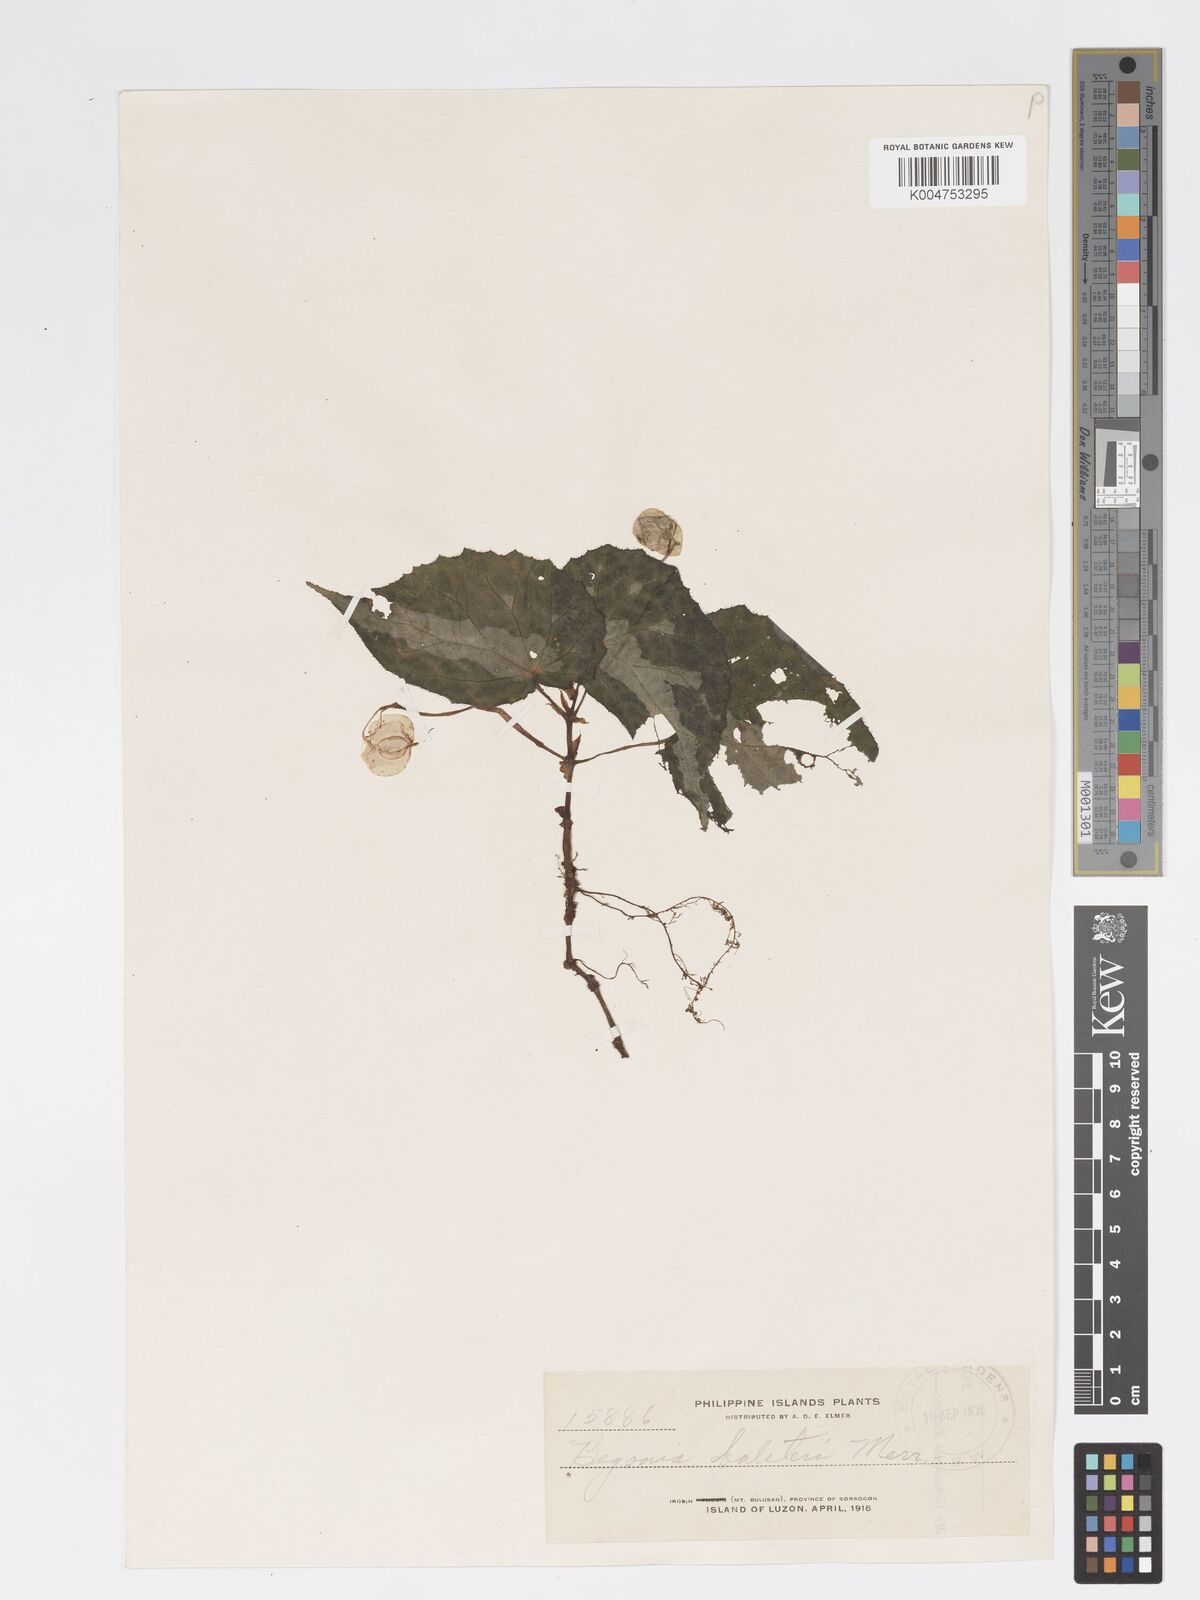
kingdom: Plantae
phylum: Tracheophyta
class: Magnoliopsida
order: Cucurbitales
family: Begoniaceae
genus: Begonia
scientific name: Begonia colorata
